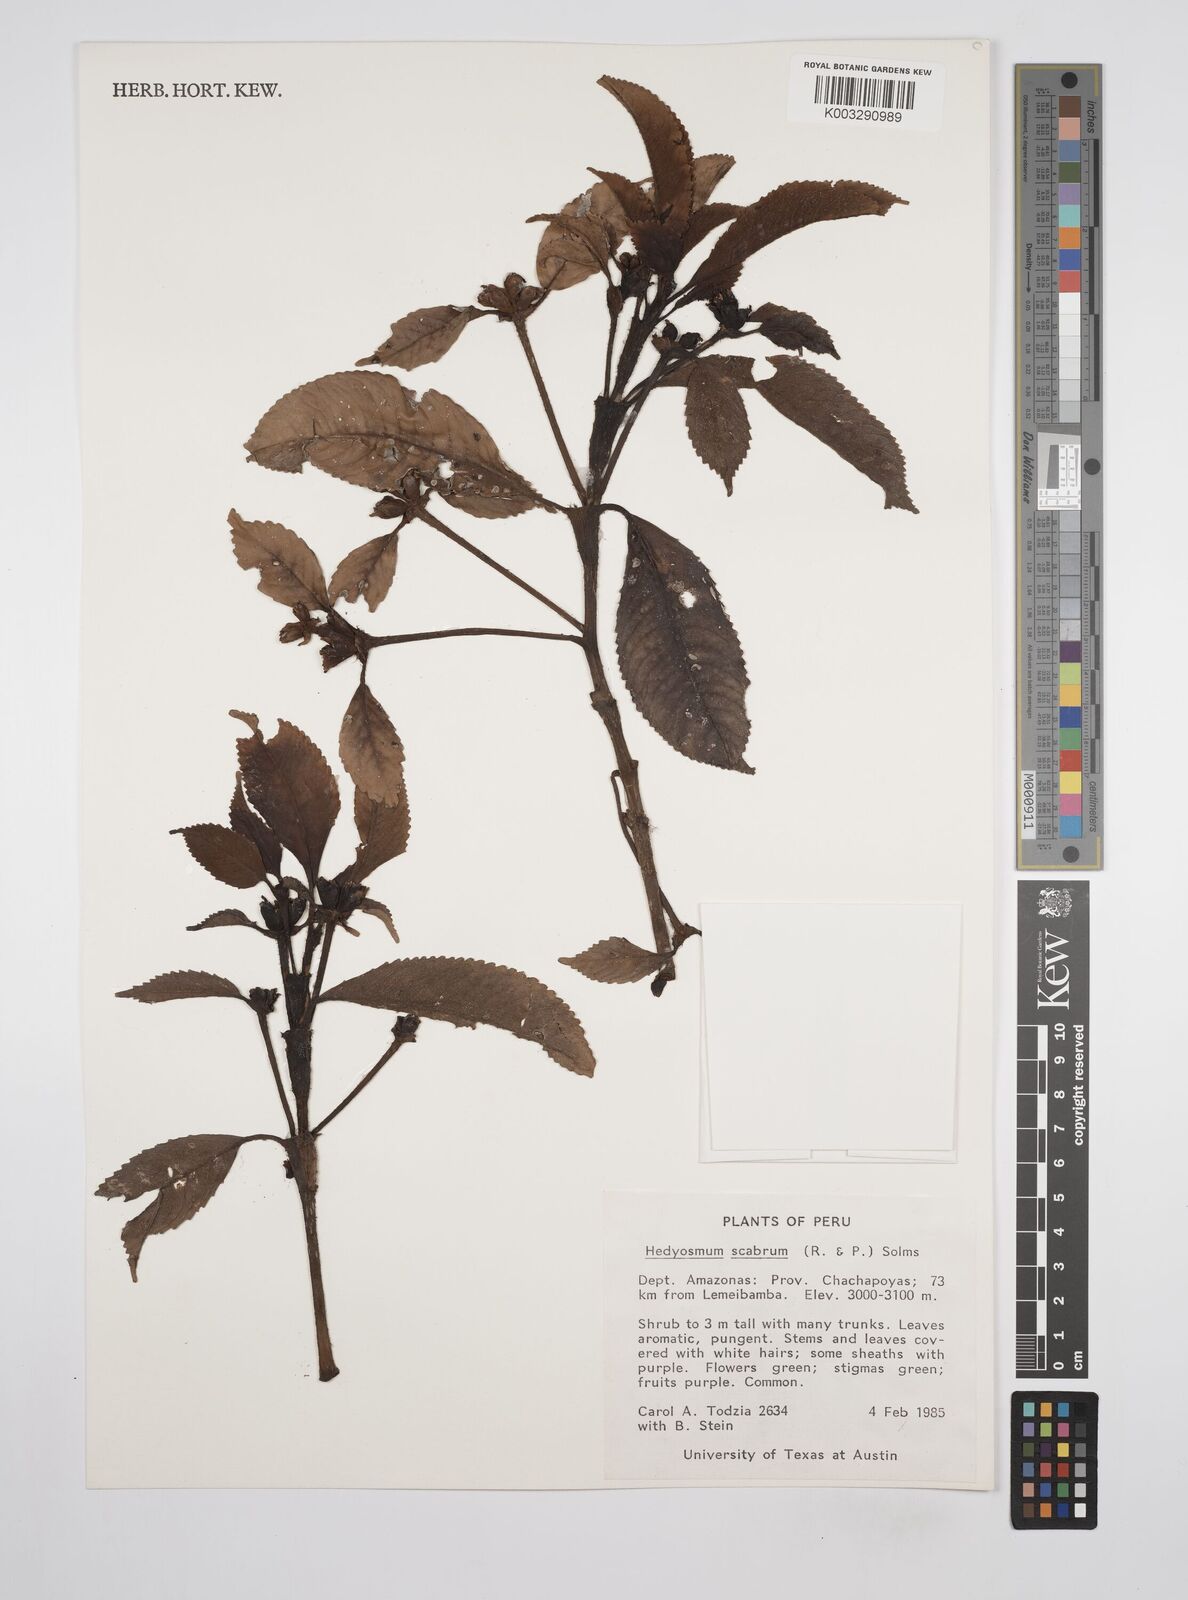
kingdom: Plantae
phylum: Tracheophyta
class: Magnoliopsida
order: Chloranthales
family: Chloranthaceae
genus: Hedyosmum
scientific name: Hedyosmum scabrum
